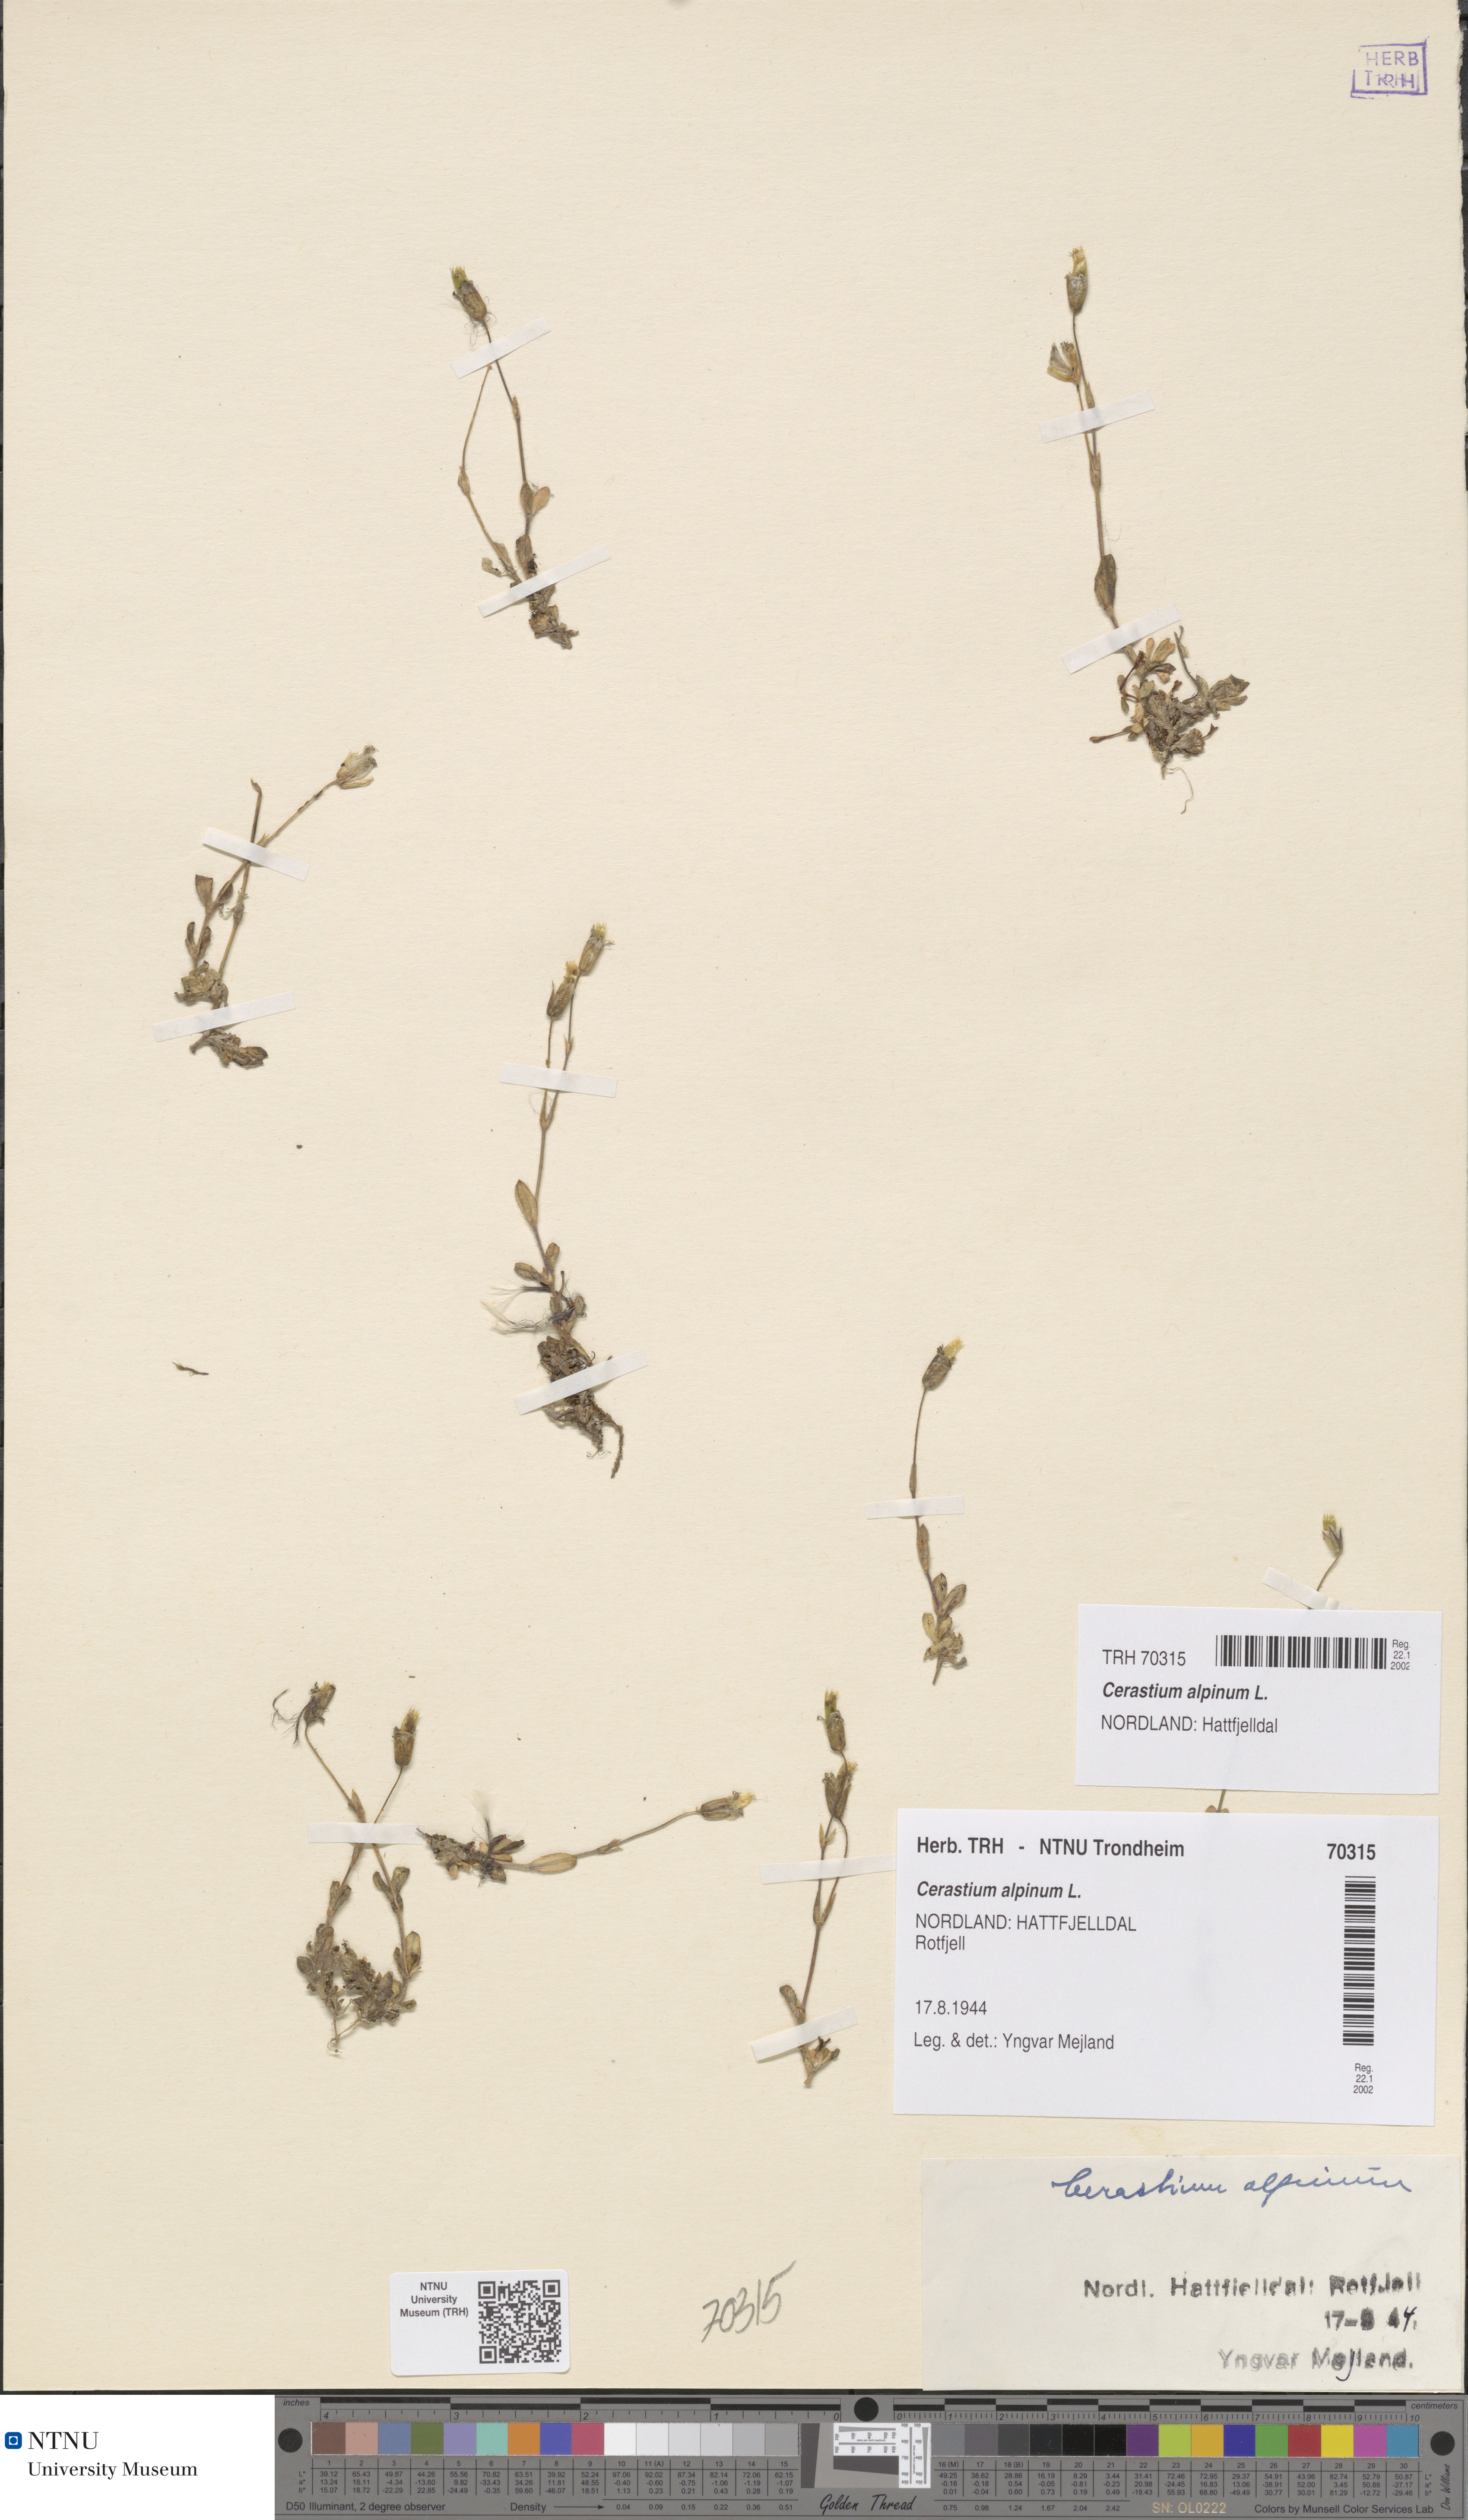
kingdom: Plantae
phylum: Tracheophyta
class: Magnoliopsida
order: Caryophyllales
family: Caryophyllaceae
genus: Cerastium
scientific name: Cerastium alpinum
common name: Alpine mouse-ear
